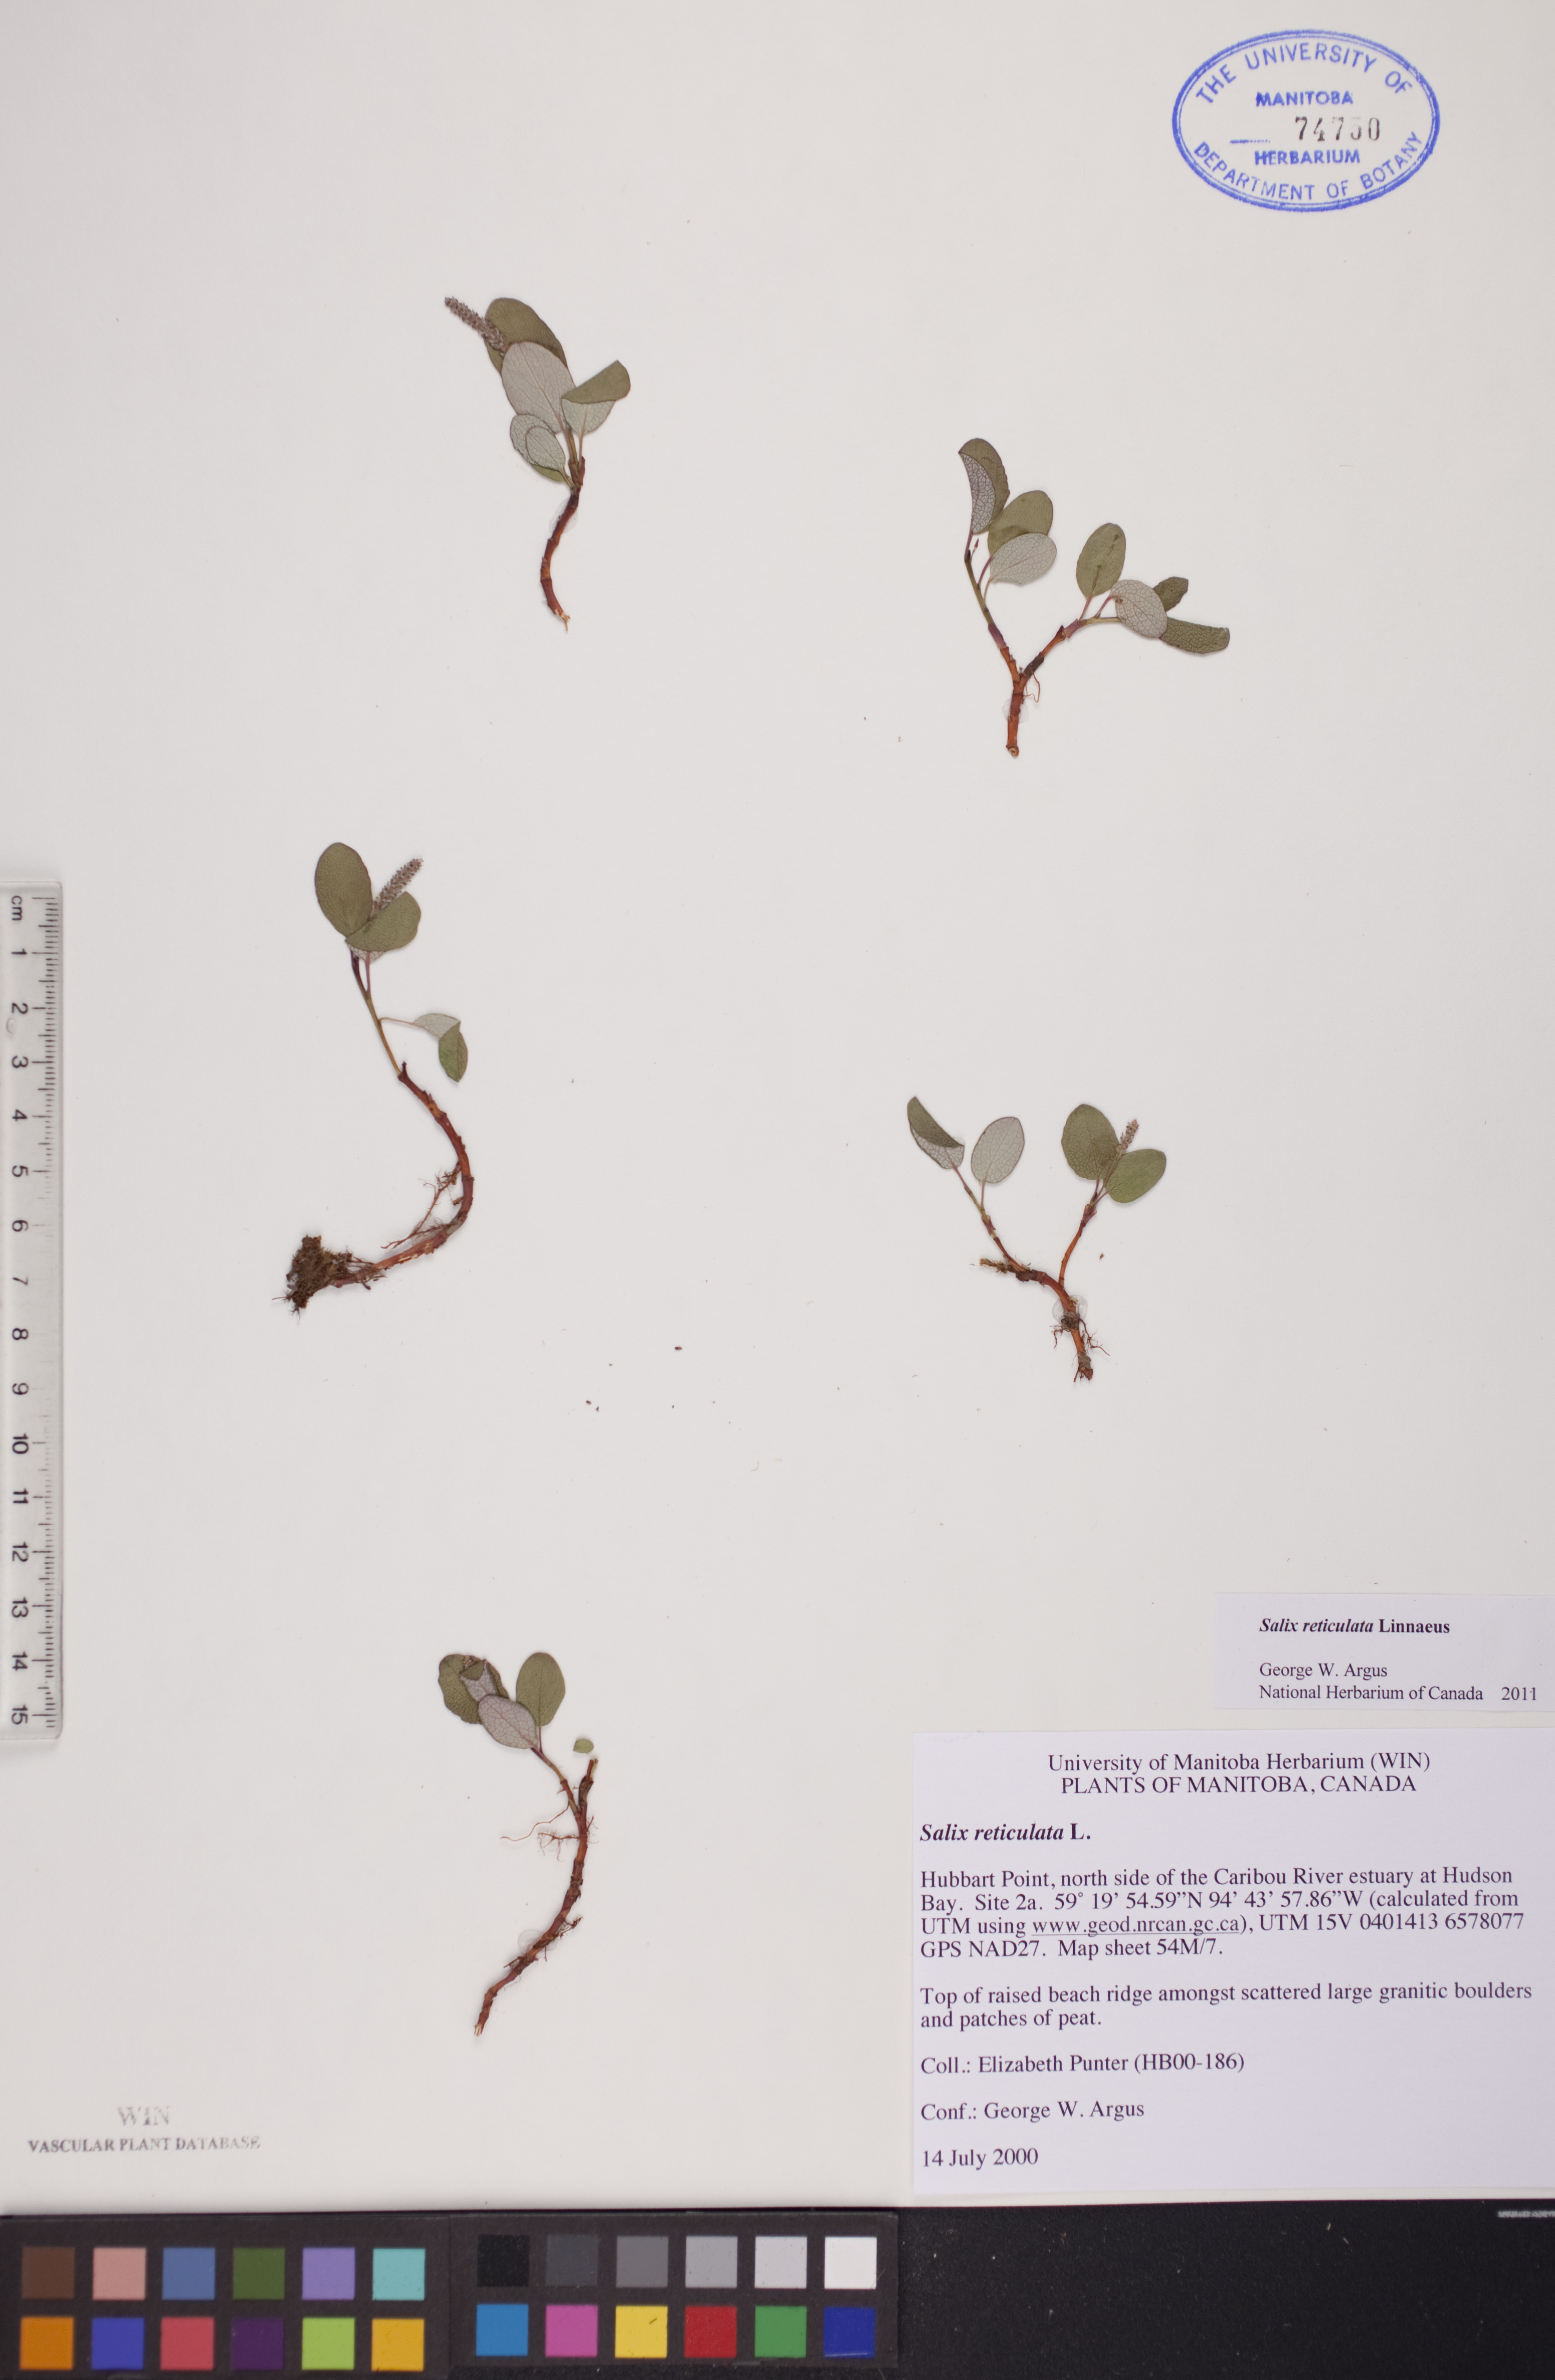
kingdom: Plantae
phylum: Tracheophyta
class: Magnoliopsida
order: Malpighiales
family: Salicaceae
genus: Salix
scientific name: Salix reticulata
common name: Net-leaved willow
